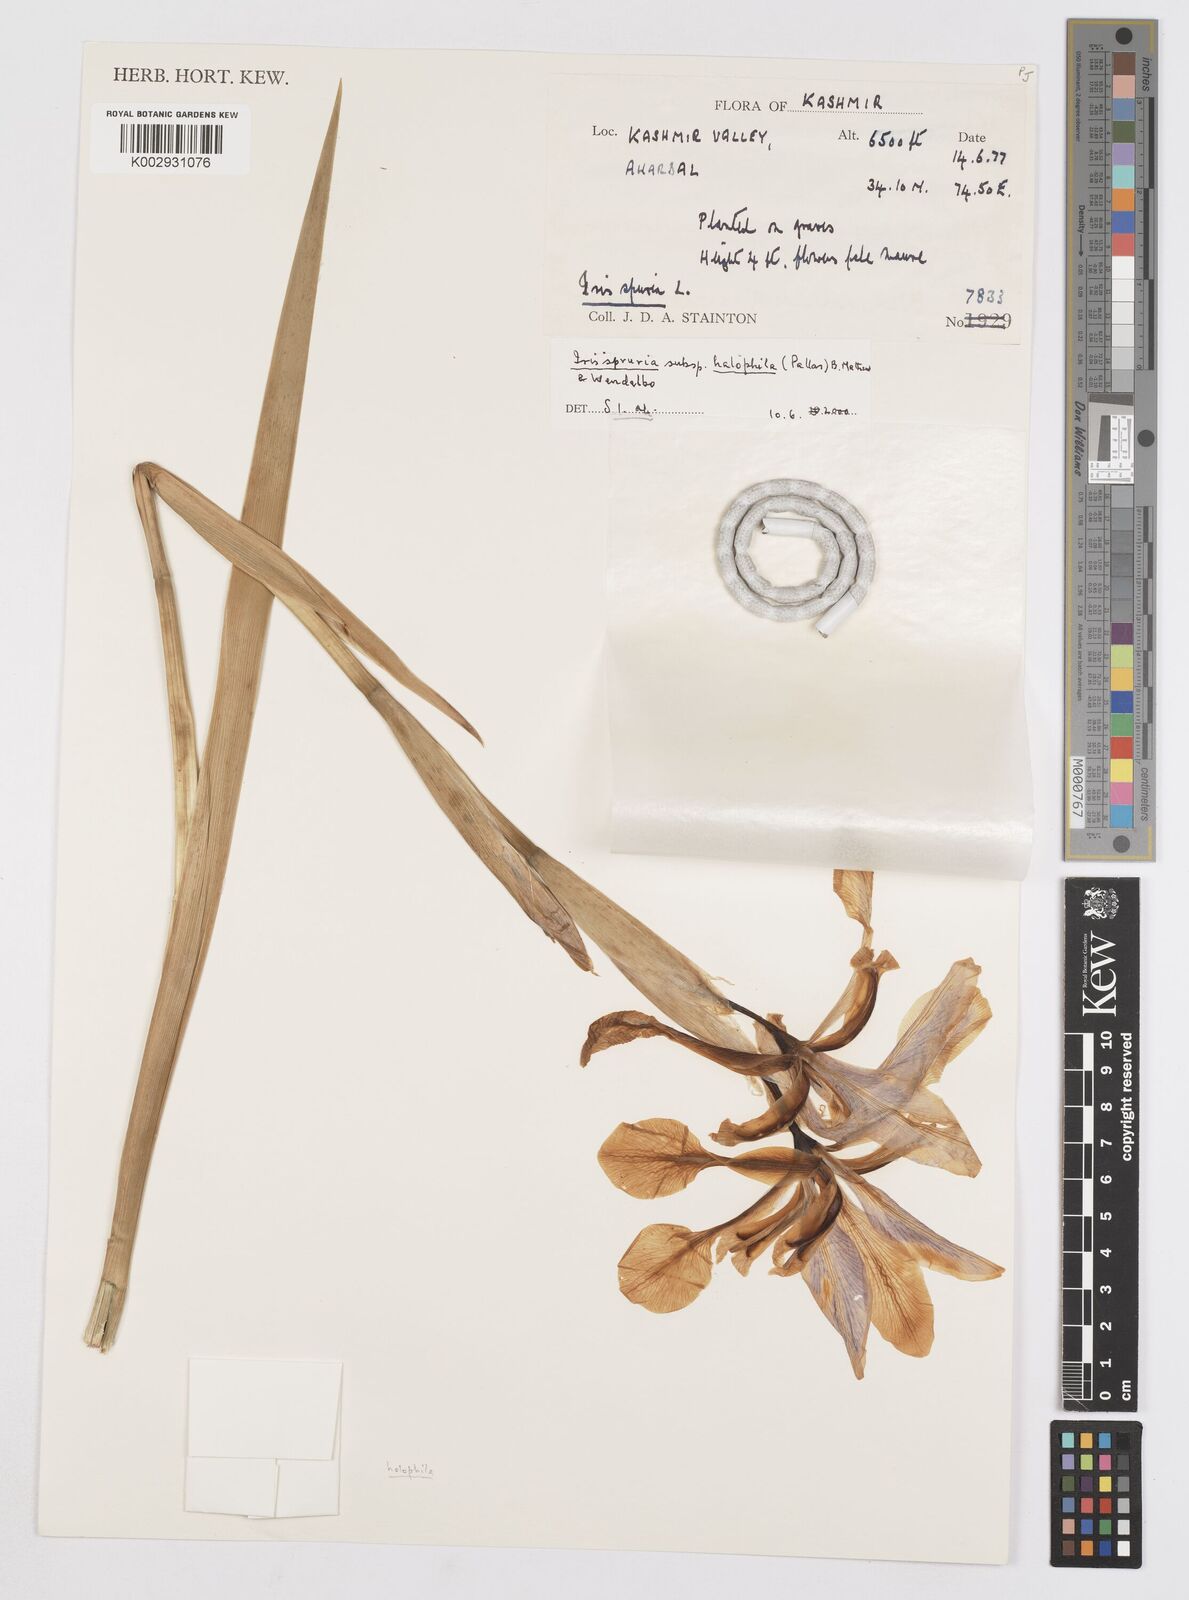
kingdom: Plantae
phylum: Tracheophyta
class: Liliopsida
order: Asparagales
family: Iridaceae
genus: Iris
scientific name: Iris spuria
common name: Blue iris
